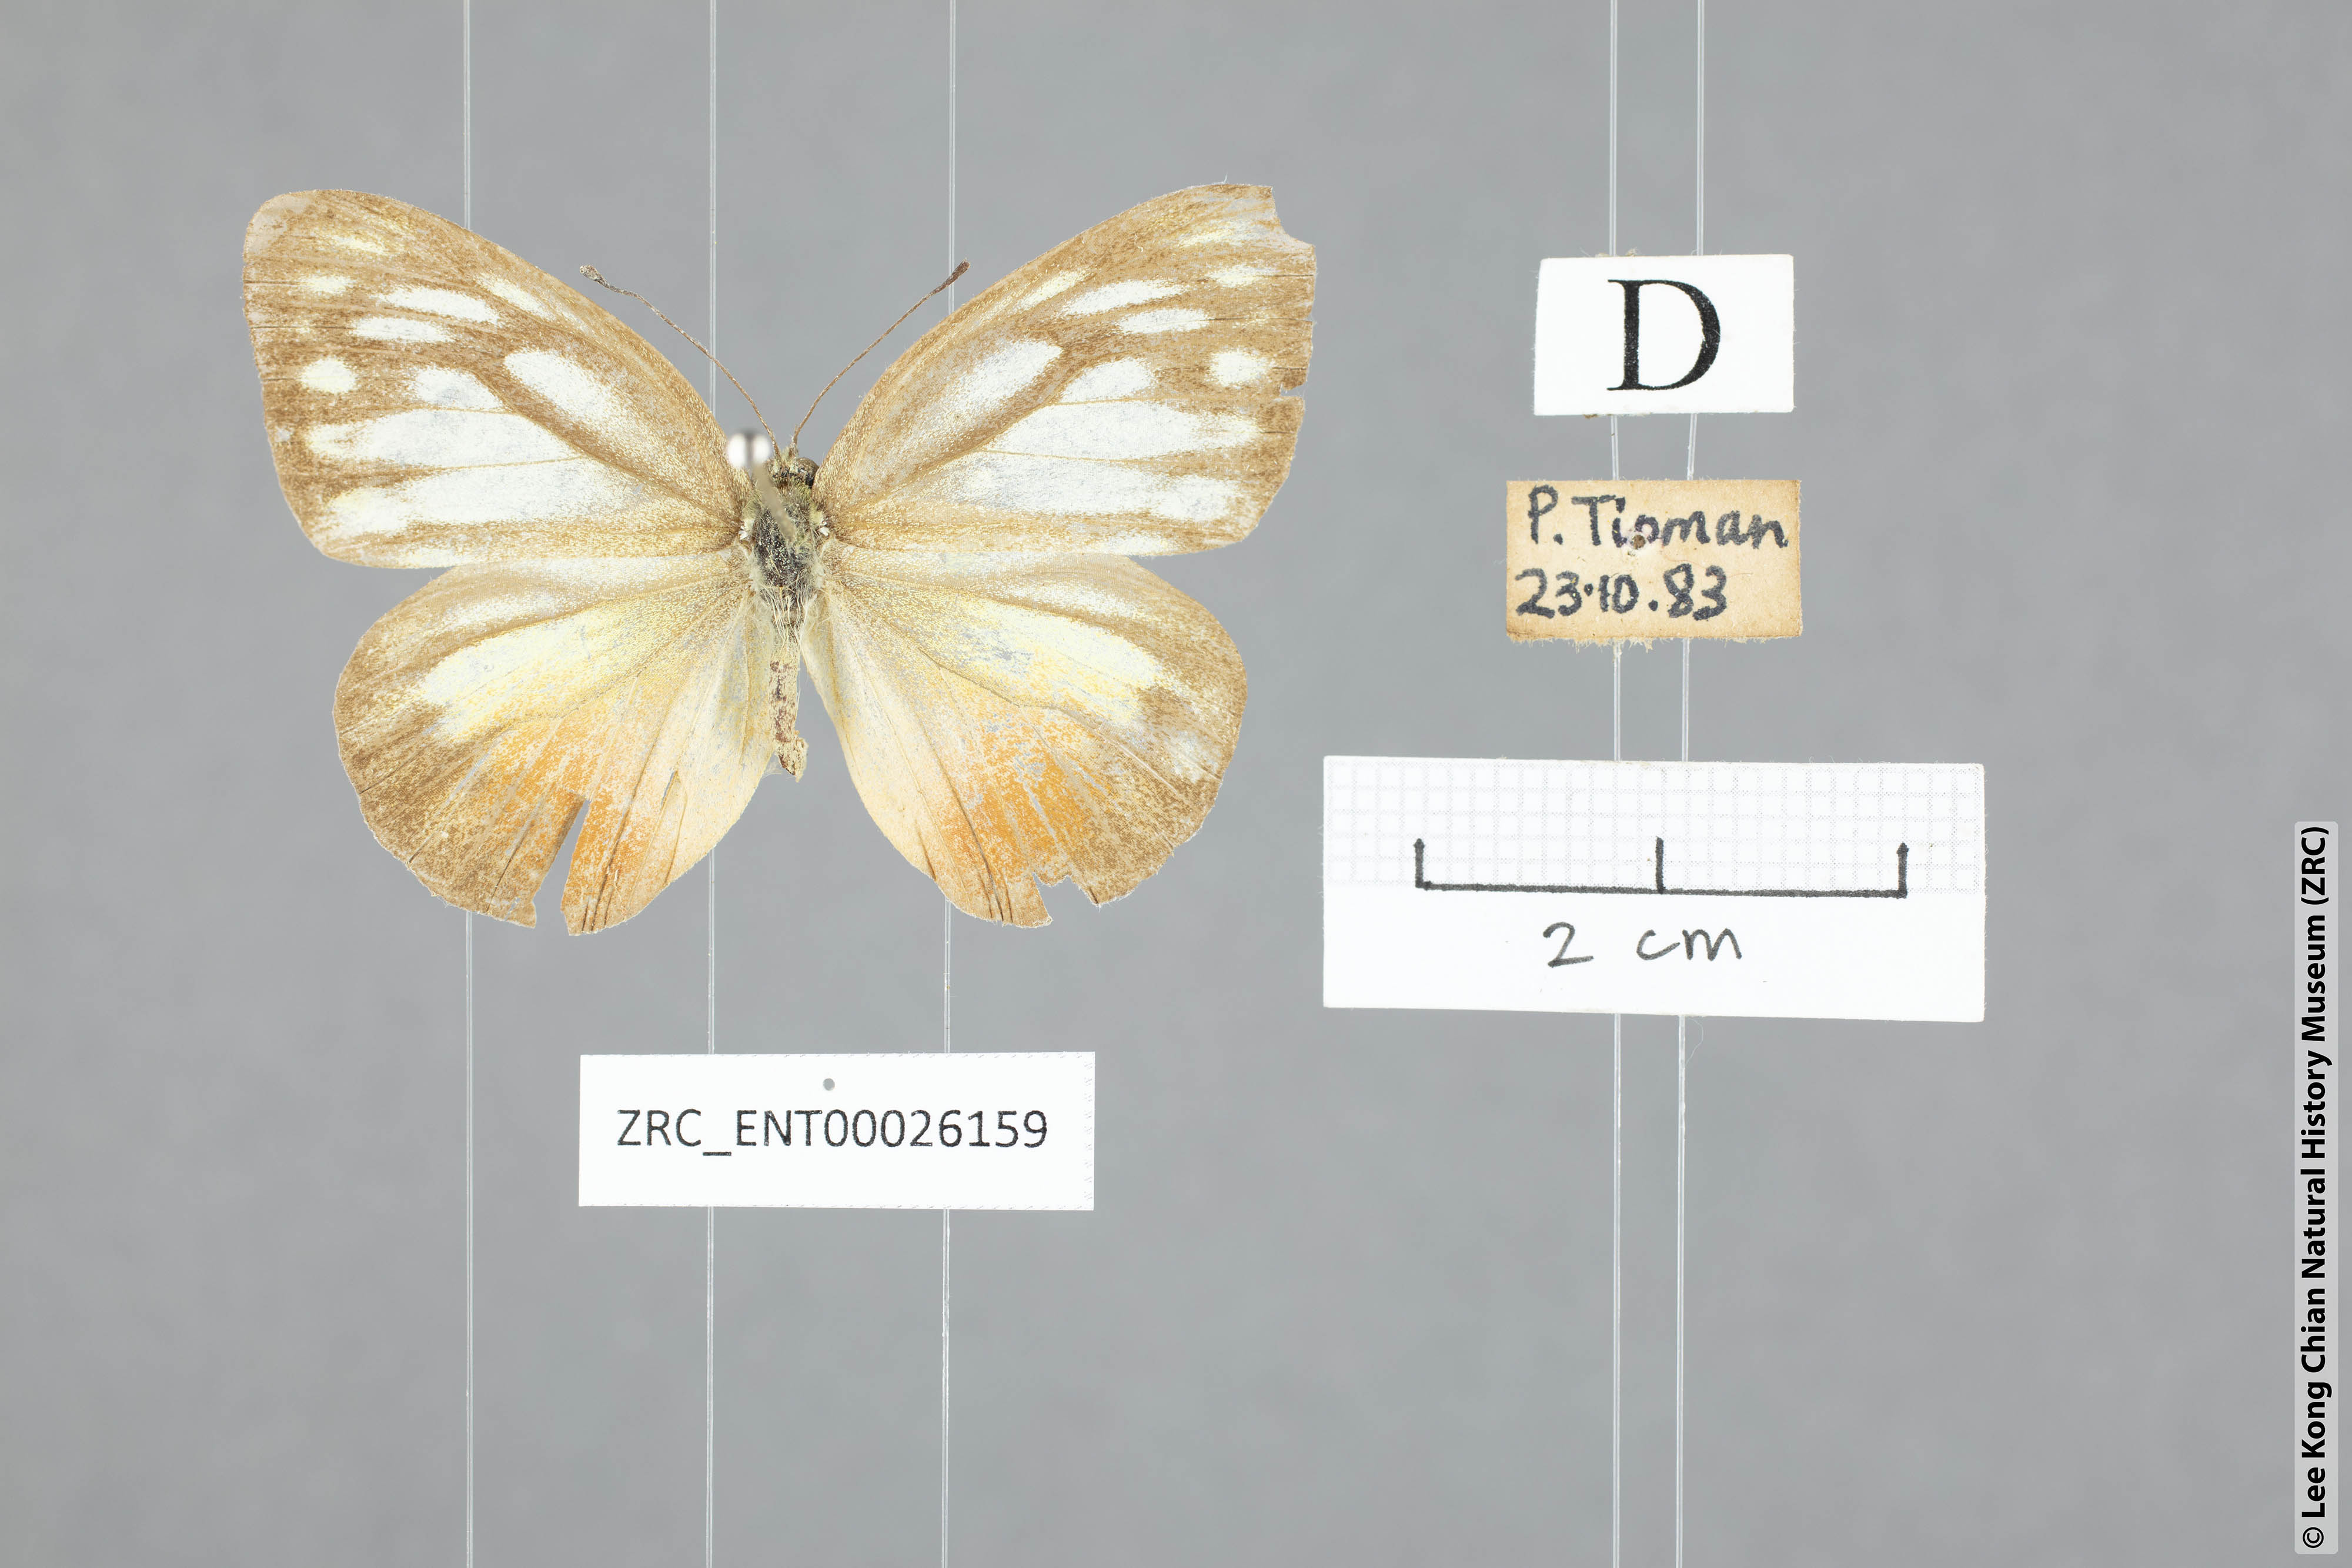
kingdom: Animalia
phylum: Arthropoda
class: Insecta
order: Lepidoptera
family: Pieridae
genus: Cepora
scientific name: Cepora nadina
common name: Lesser gull
